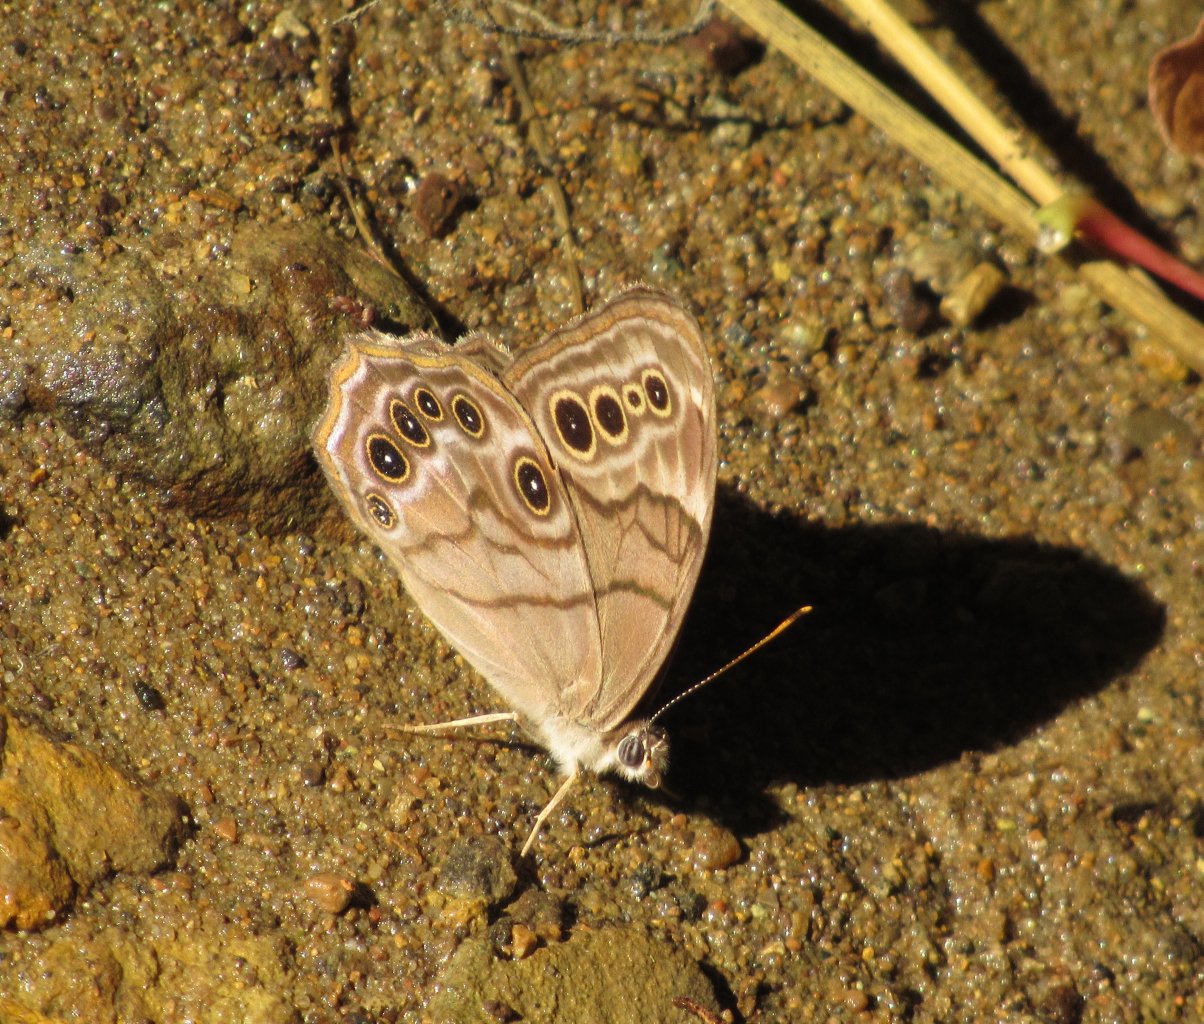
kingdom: Animalia
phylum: Arthropoda
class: Insecta
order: Lepidoptera
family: Nymphalidae
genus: Lethe
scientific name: Lethe anthedon
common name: Northern Pearly-Eye
